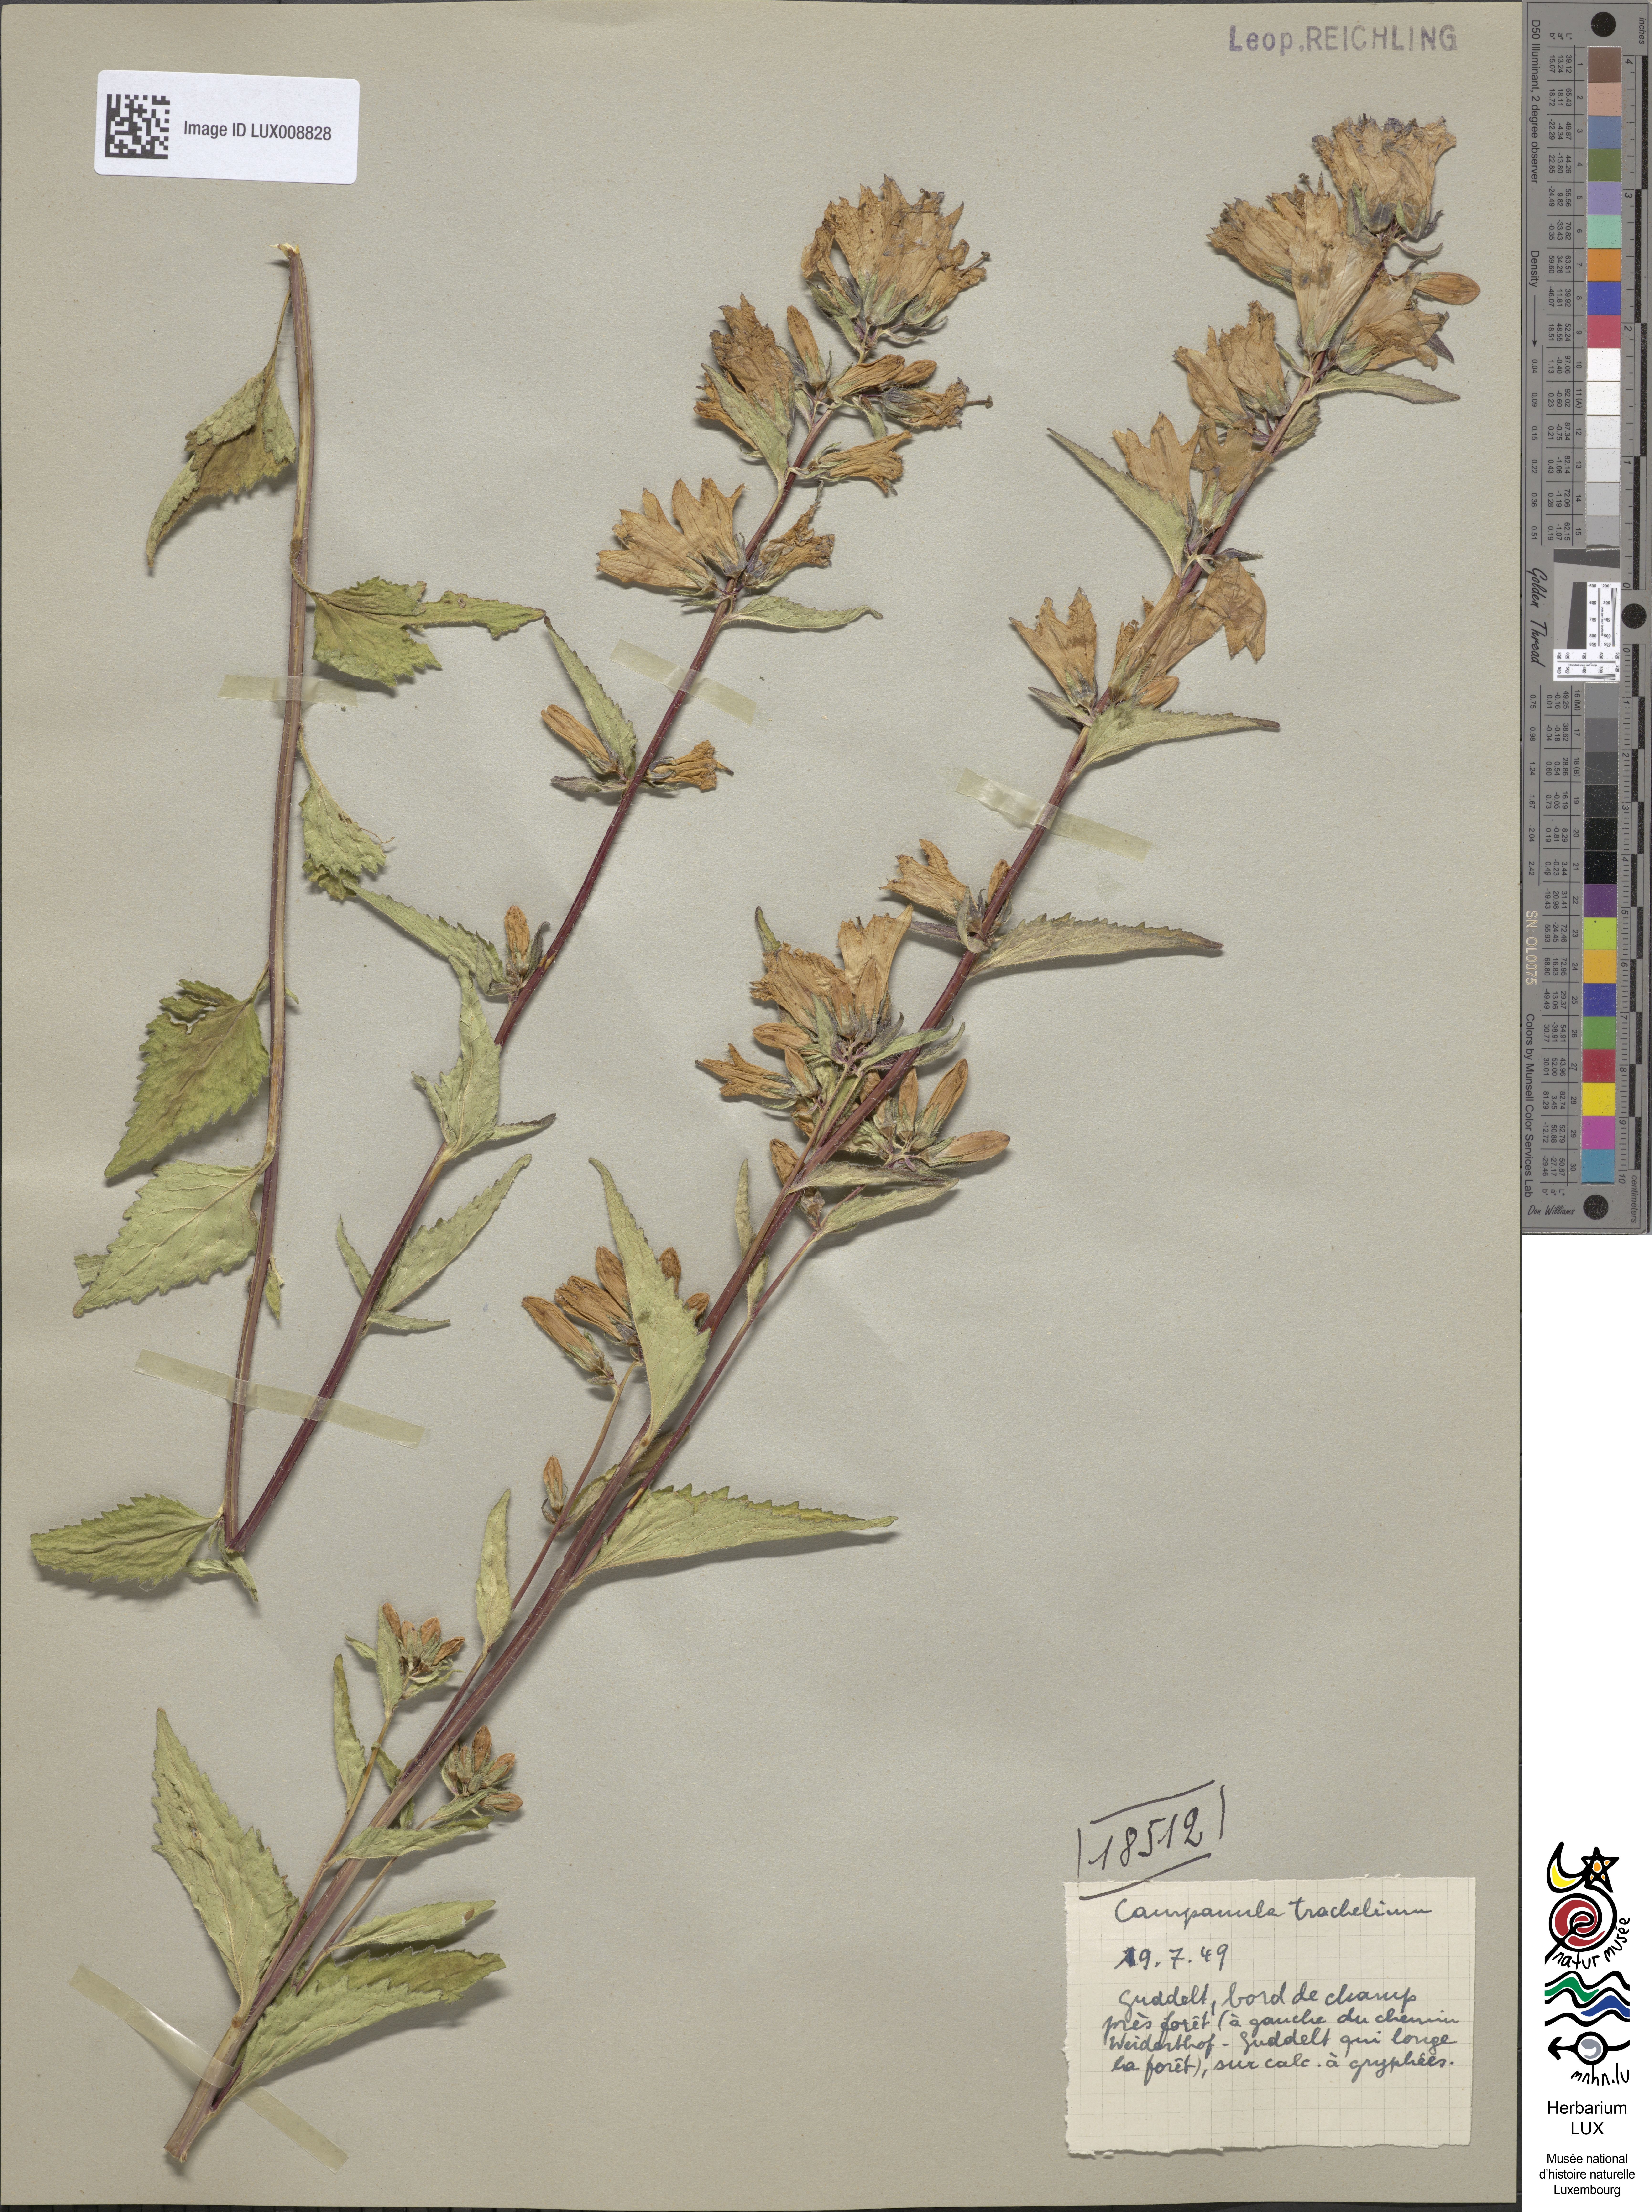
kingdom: Plantae
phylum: Tracheophyta
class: Magnoliopsida
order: Asterales
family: Campanulaceae
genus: Campanula
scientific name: Campanula trachelium
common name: Nettle-leaved bellflower
